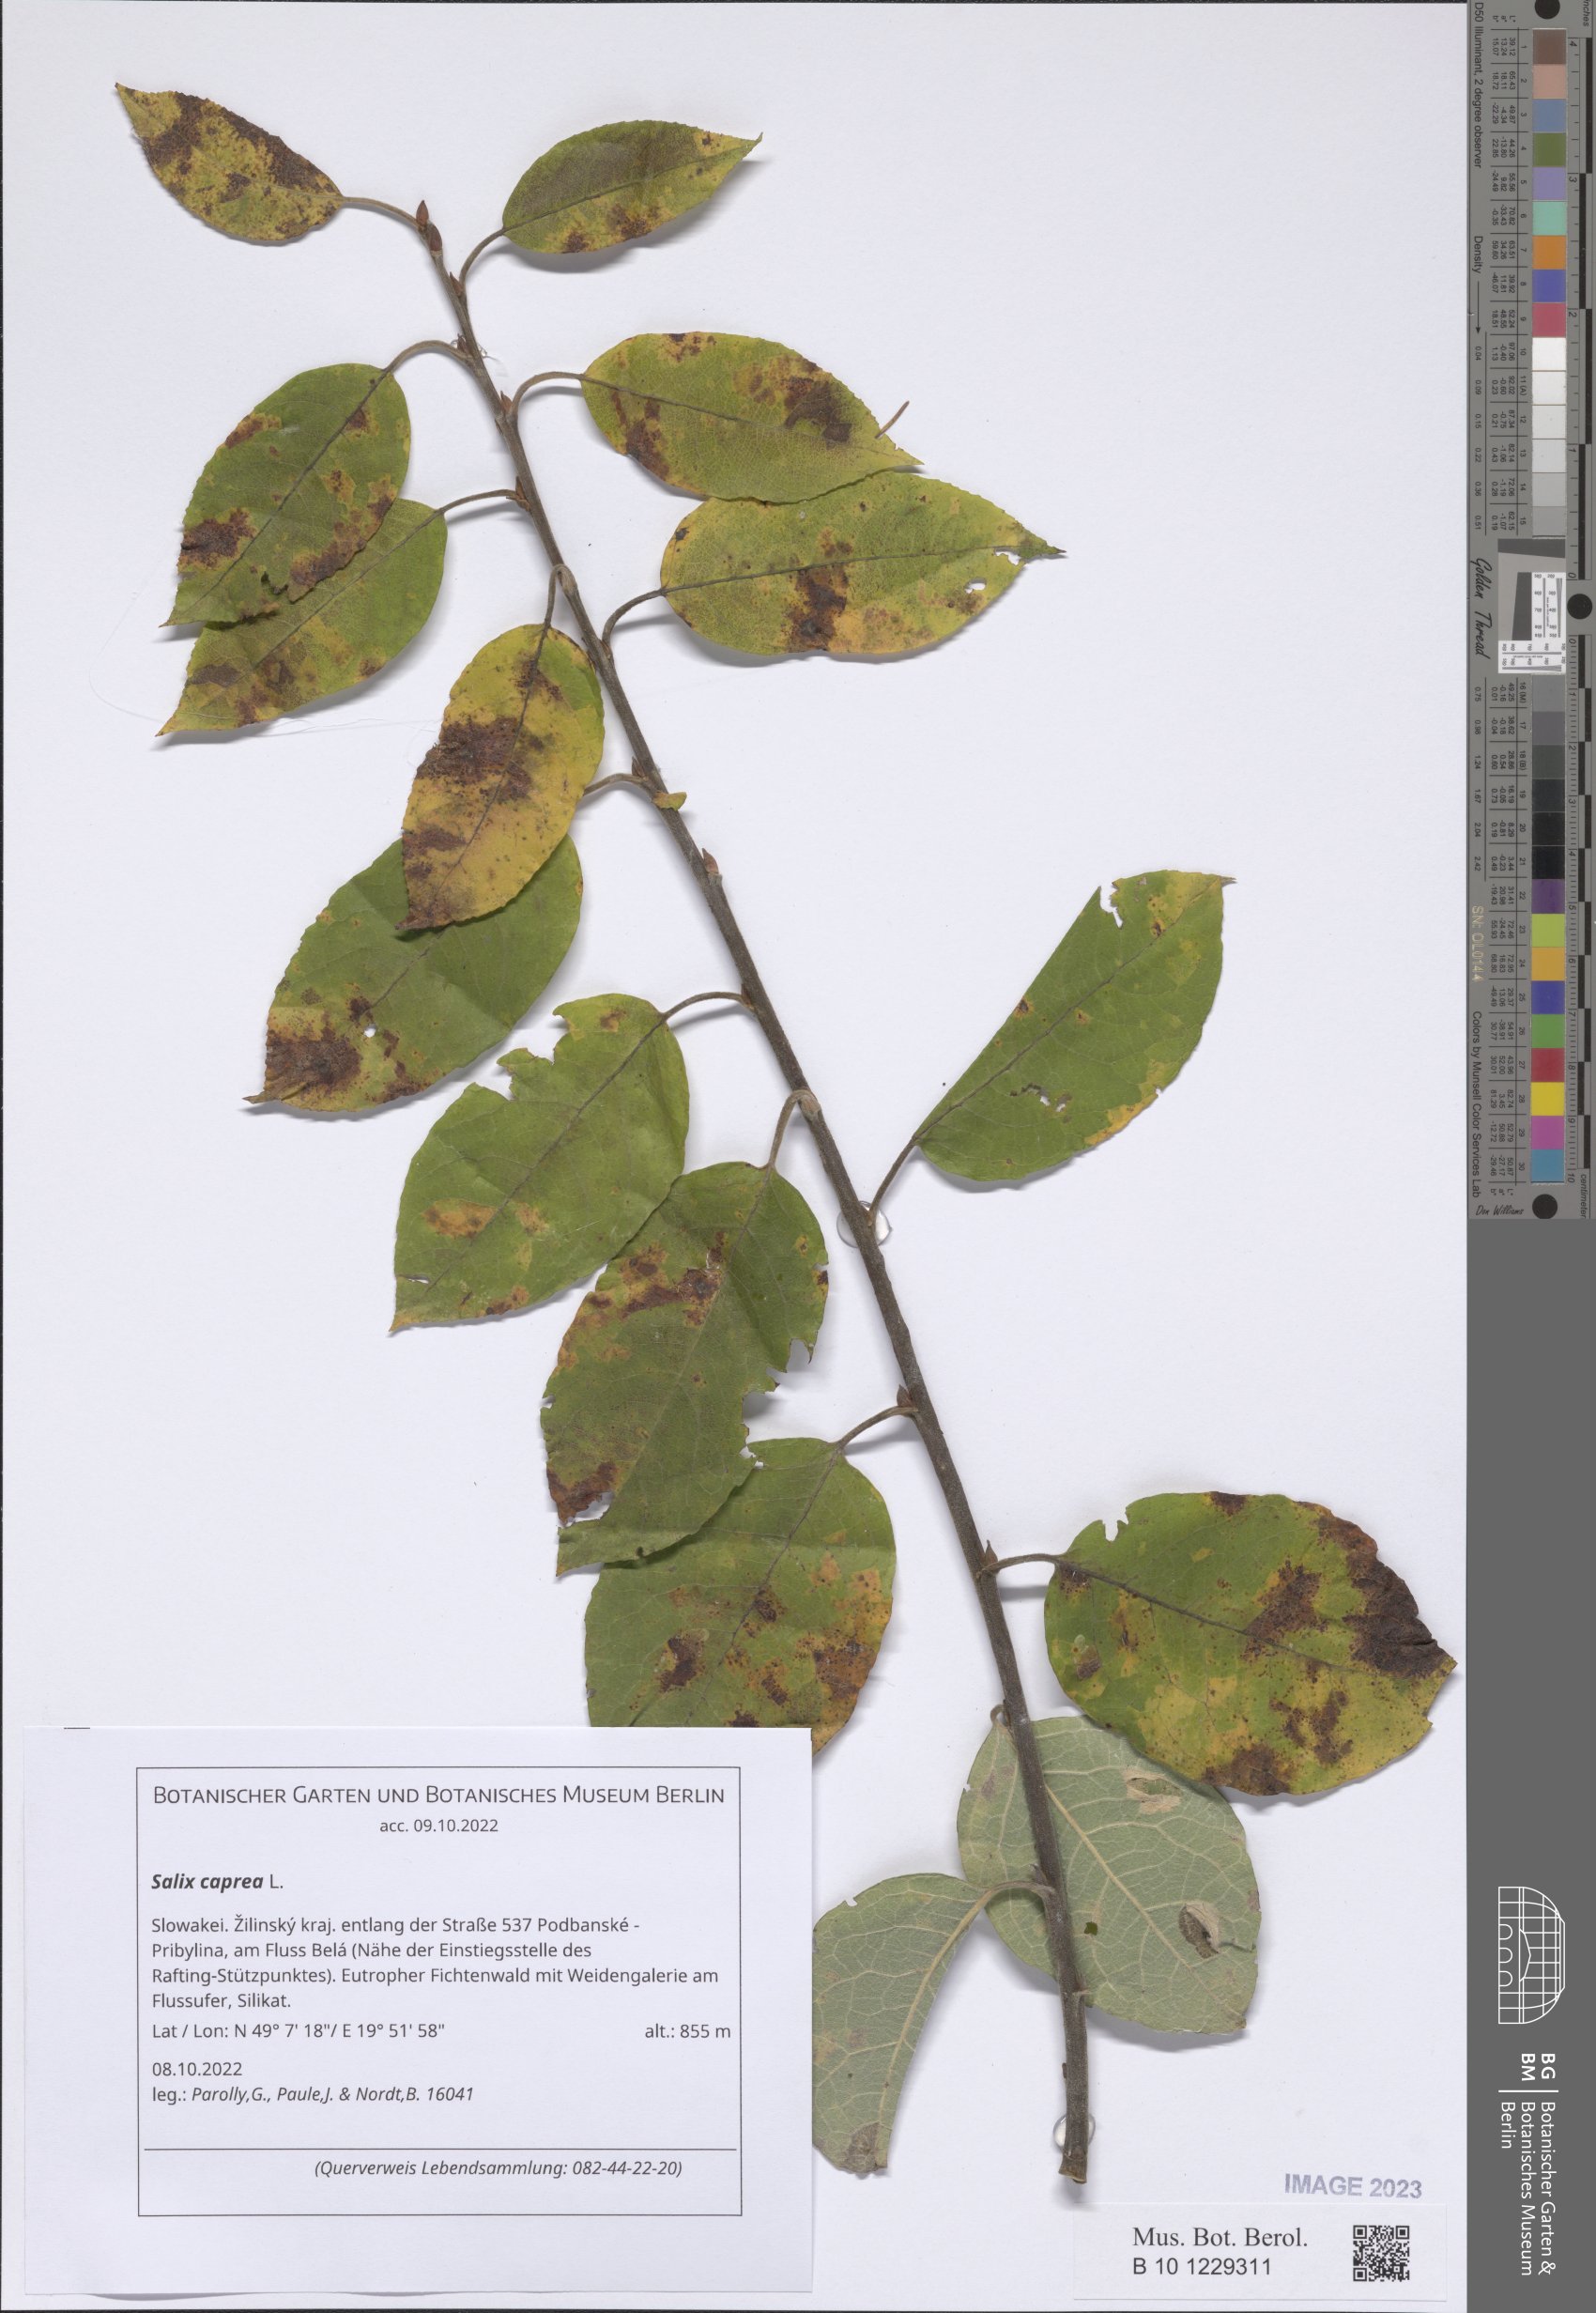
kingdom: Plantae
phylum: Tracheophyta
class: Magnoliopsida
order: Malpighiales
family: Salicaceae
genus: Salix
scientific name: Salix caprea
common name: Goat willow
